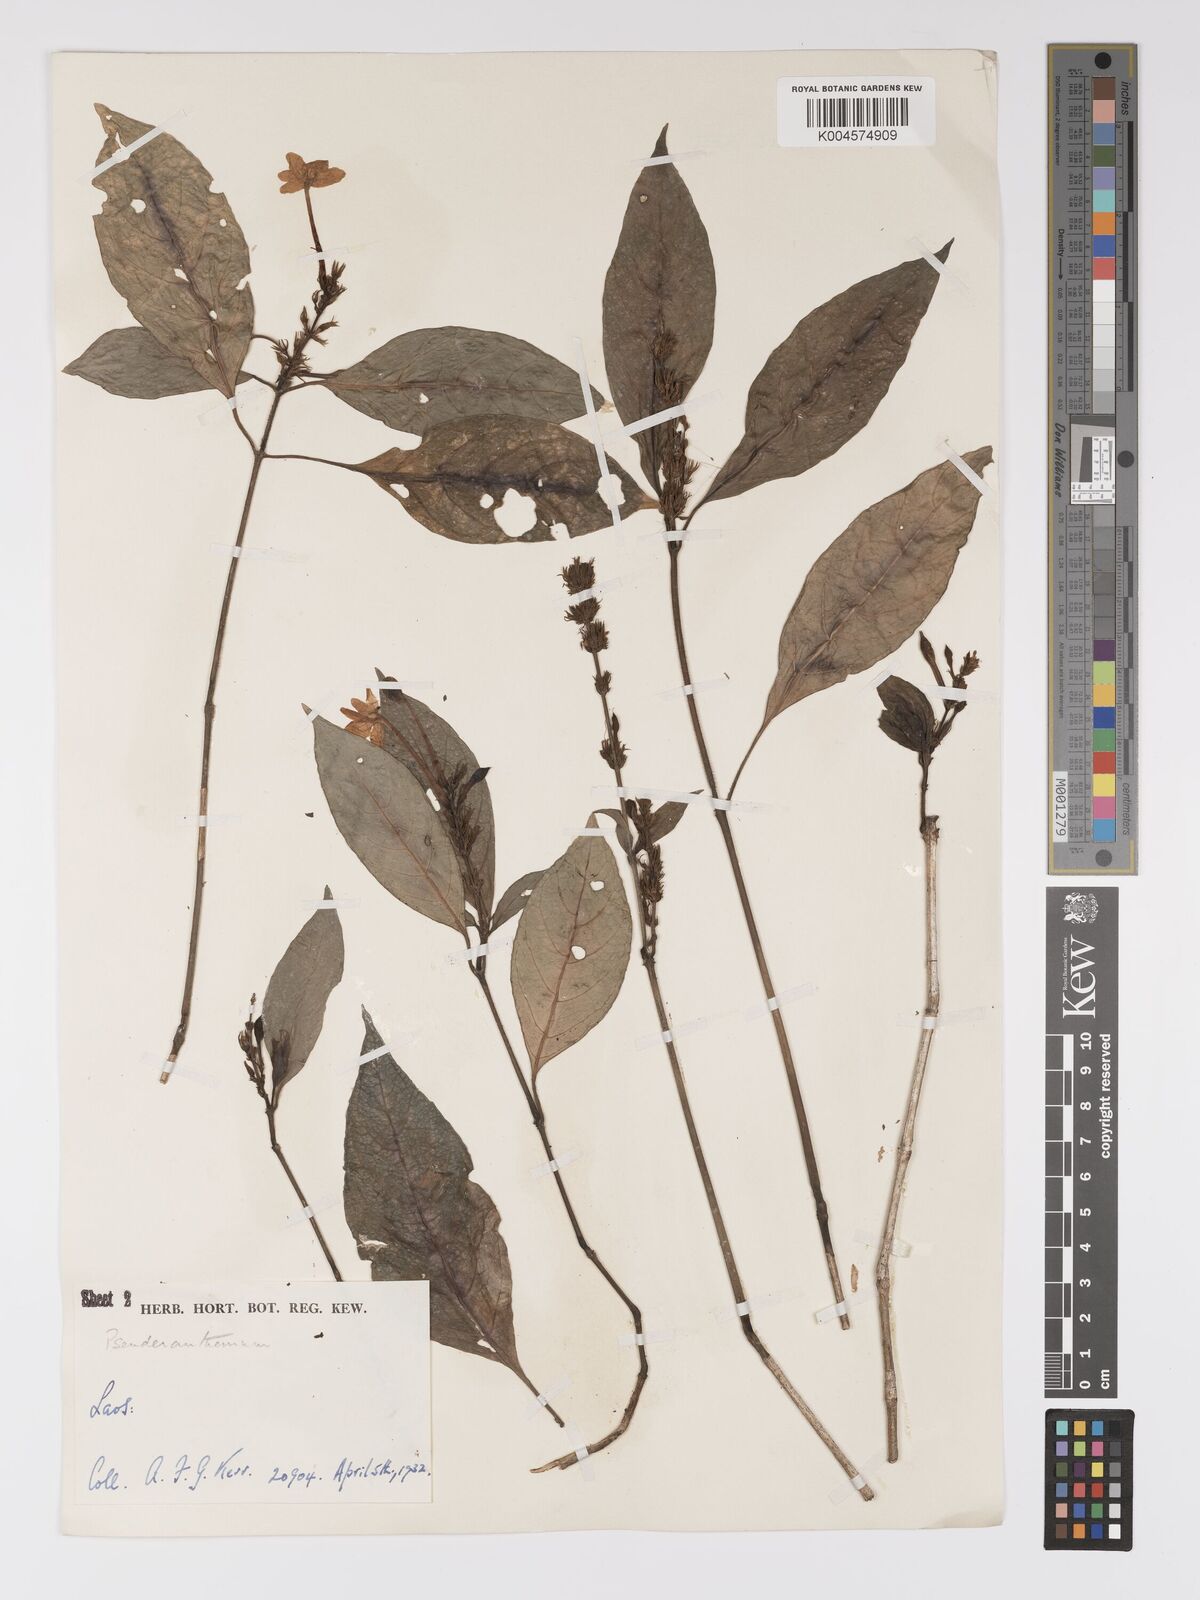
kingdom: Plantae
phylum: Tracheophyta
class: Magnoliopsida
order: Lamiales
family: Acanthaceae
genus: Pseuderanthemum
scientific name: Pseuderanthemum
